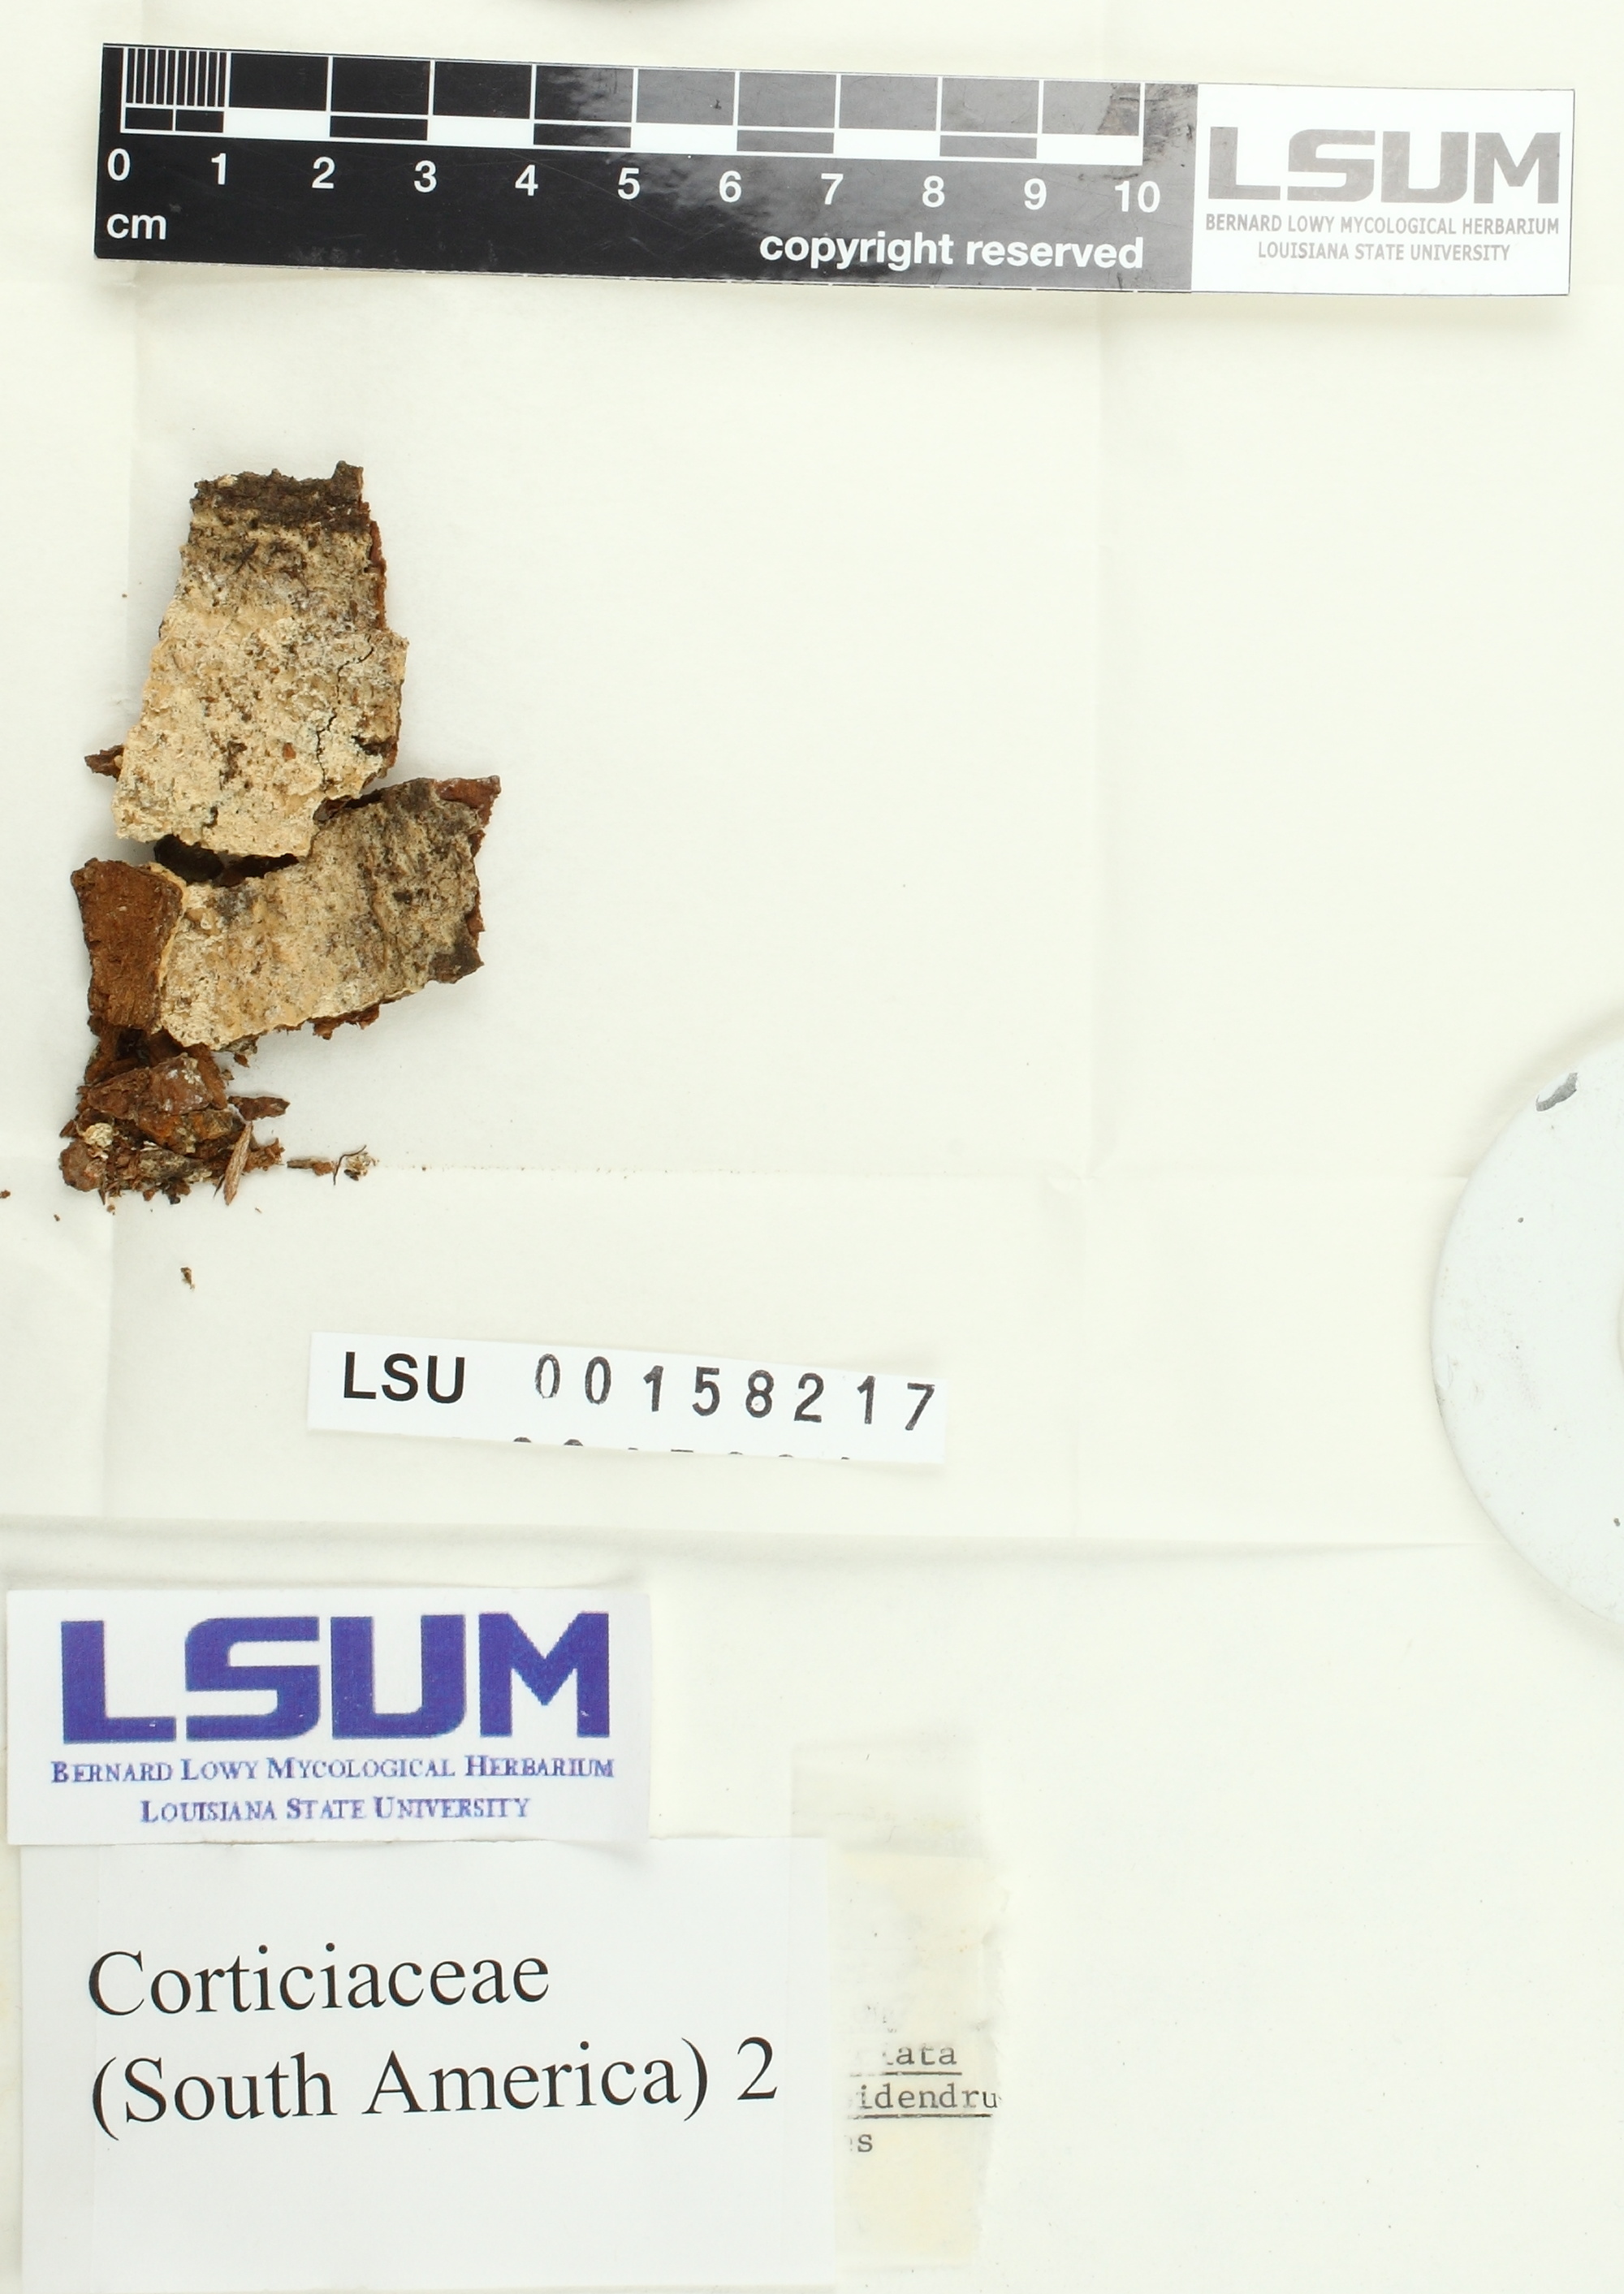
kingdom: Fungi
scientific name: Fungi
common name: Fungi
